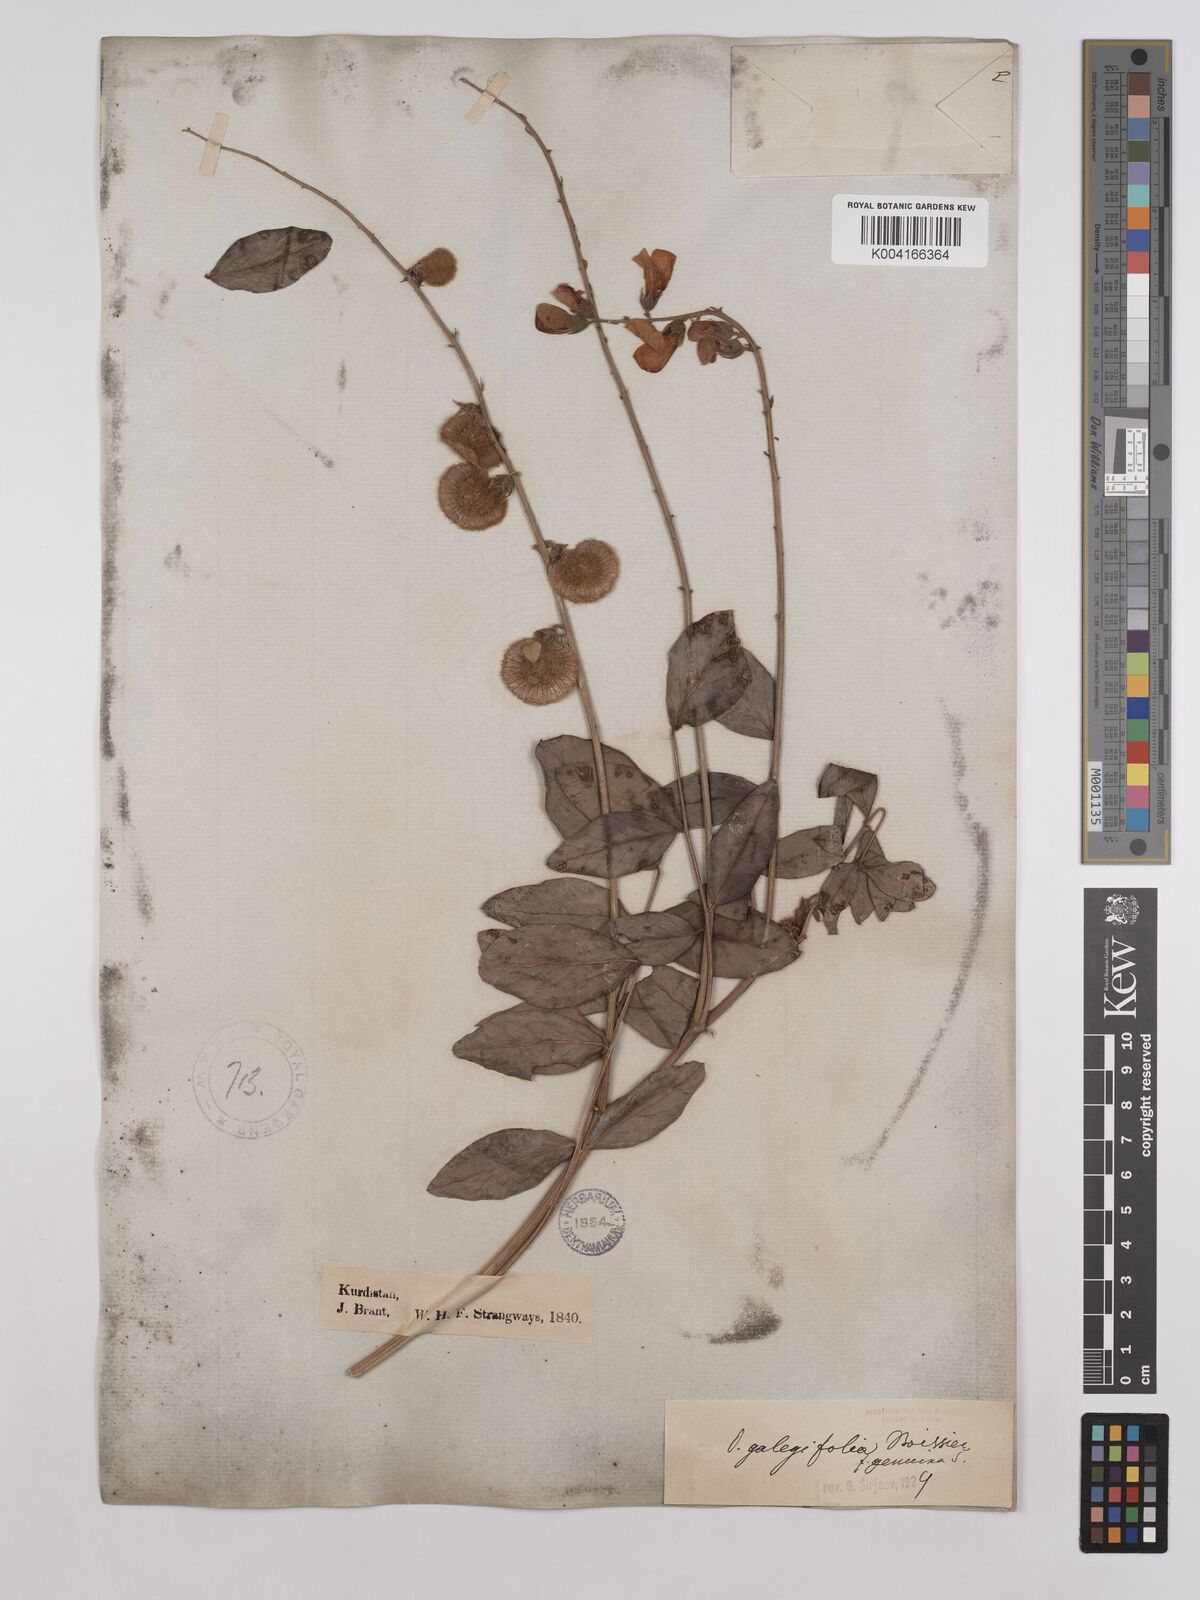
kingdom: Plantae
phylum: Tracheophyta
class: Magnoliopsida
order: Fabales
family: Fabaceae
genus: Onobrychis
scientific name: Onobrychis galegifolia
